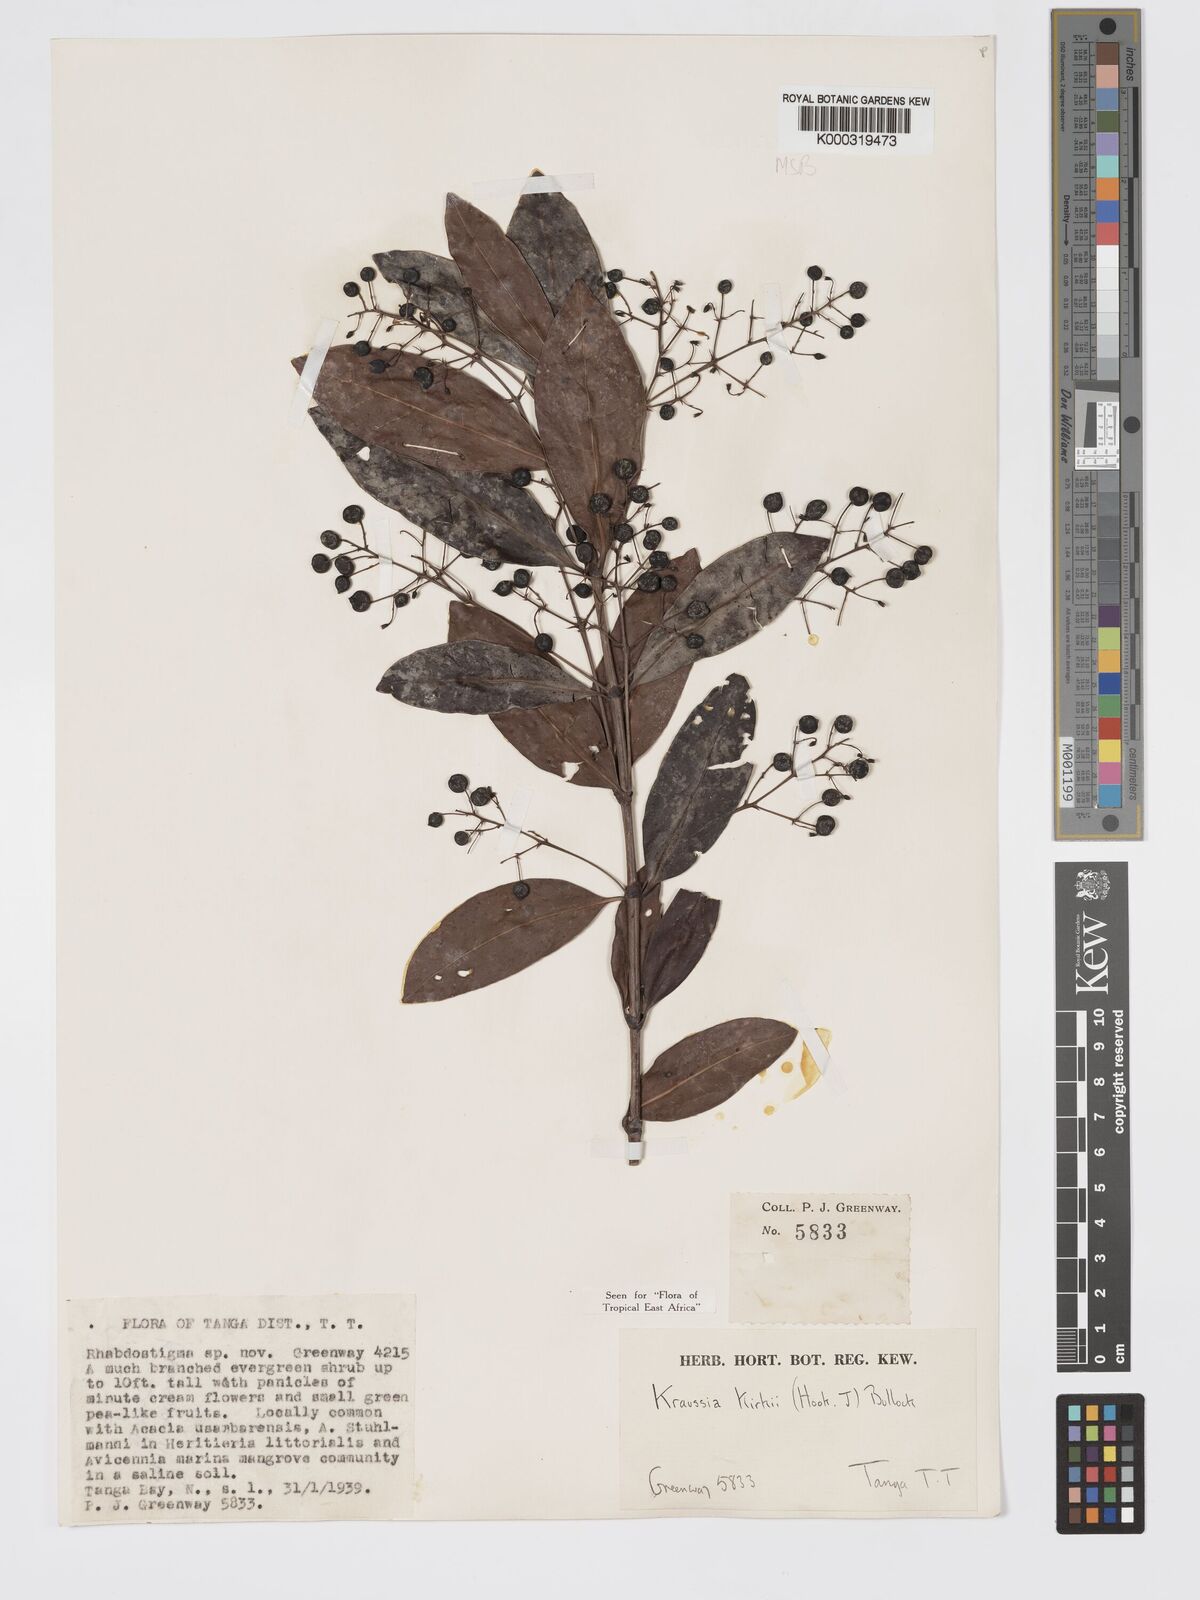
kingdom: Plantae
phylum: Tracheophyta
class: Magnoliopsida
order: Gentianales
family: Rubiaceae
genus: Kraussia
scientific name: Kraussia kirkii
